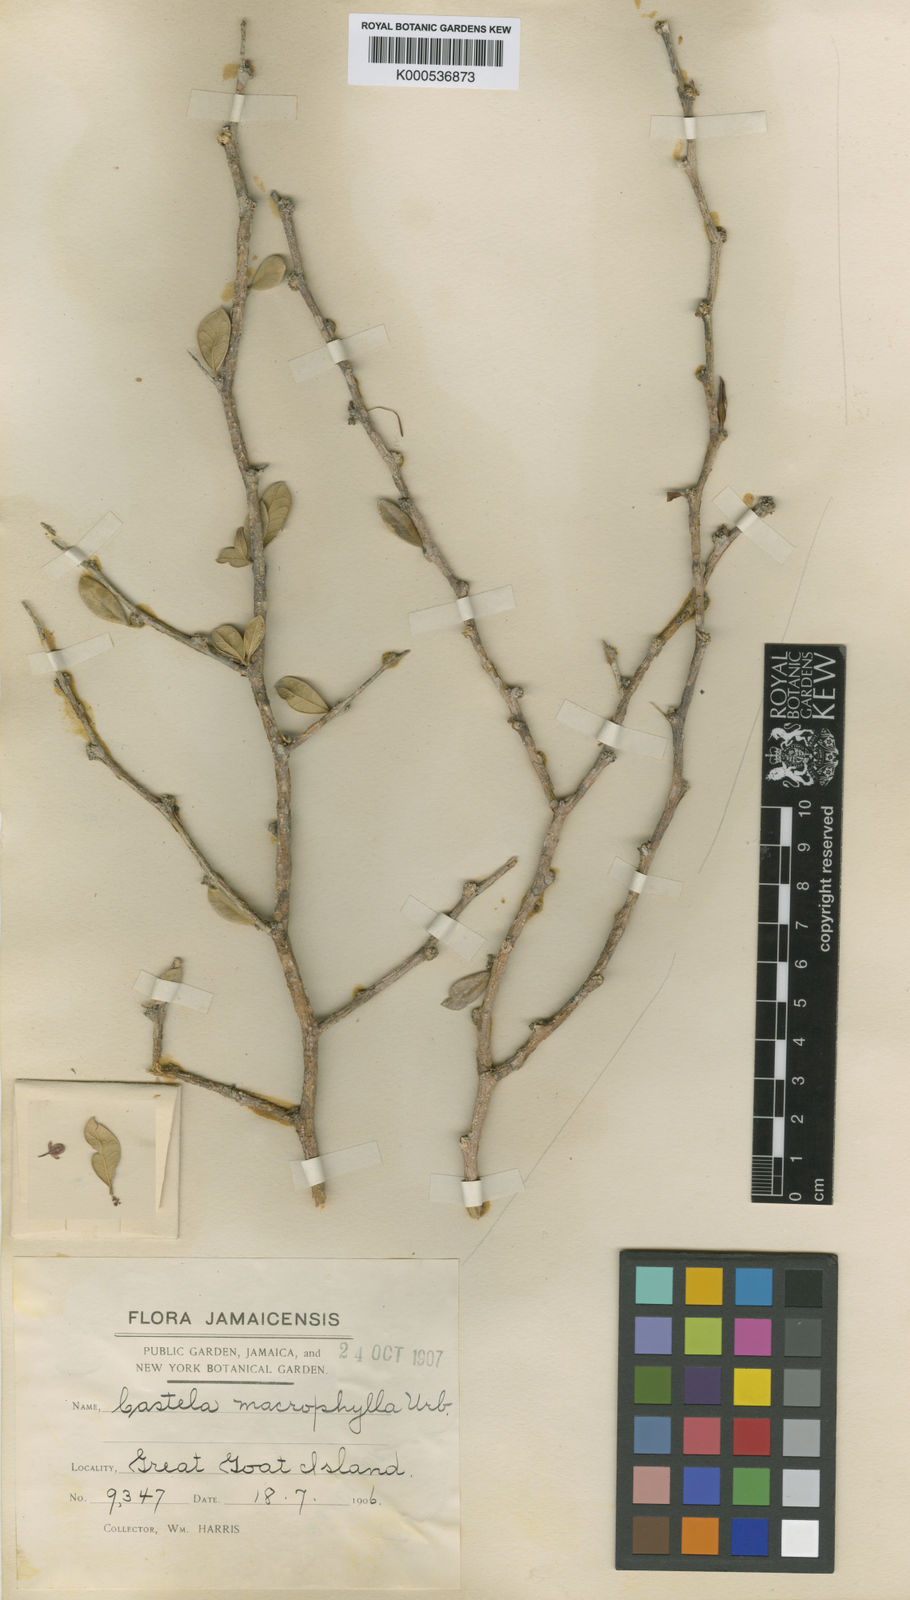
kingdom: Plantae
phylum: Tracheophyta
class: Magnoliopsida
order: Sapindales
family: Simaroubaceae
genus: Castela
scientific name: Castela macrophylla
